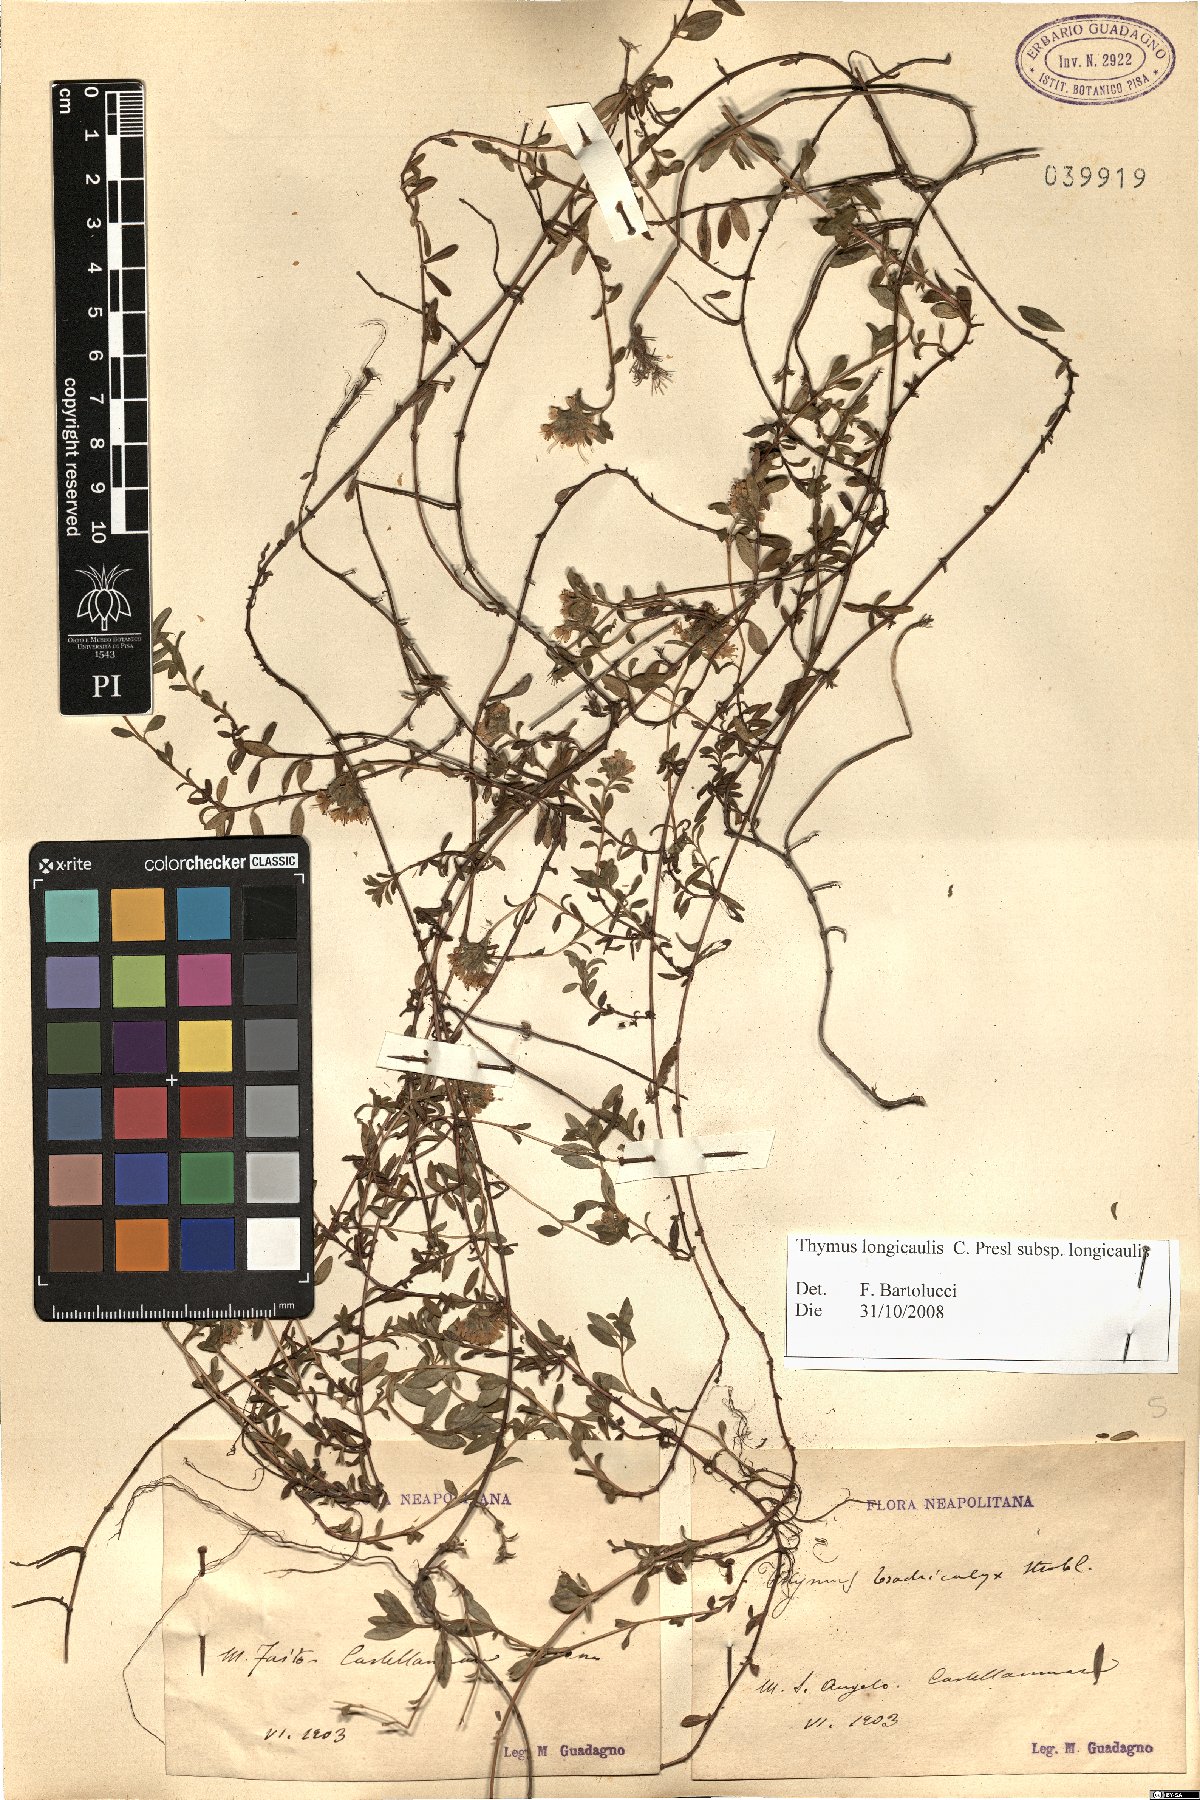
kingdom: Plantae
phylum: Tracheophyta
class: Magnoliopsida
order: Lamiales
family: Lamiaceae
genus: Thymus
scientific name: Thymus longicaulis
